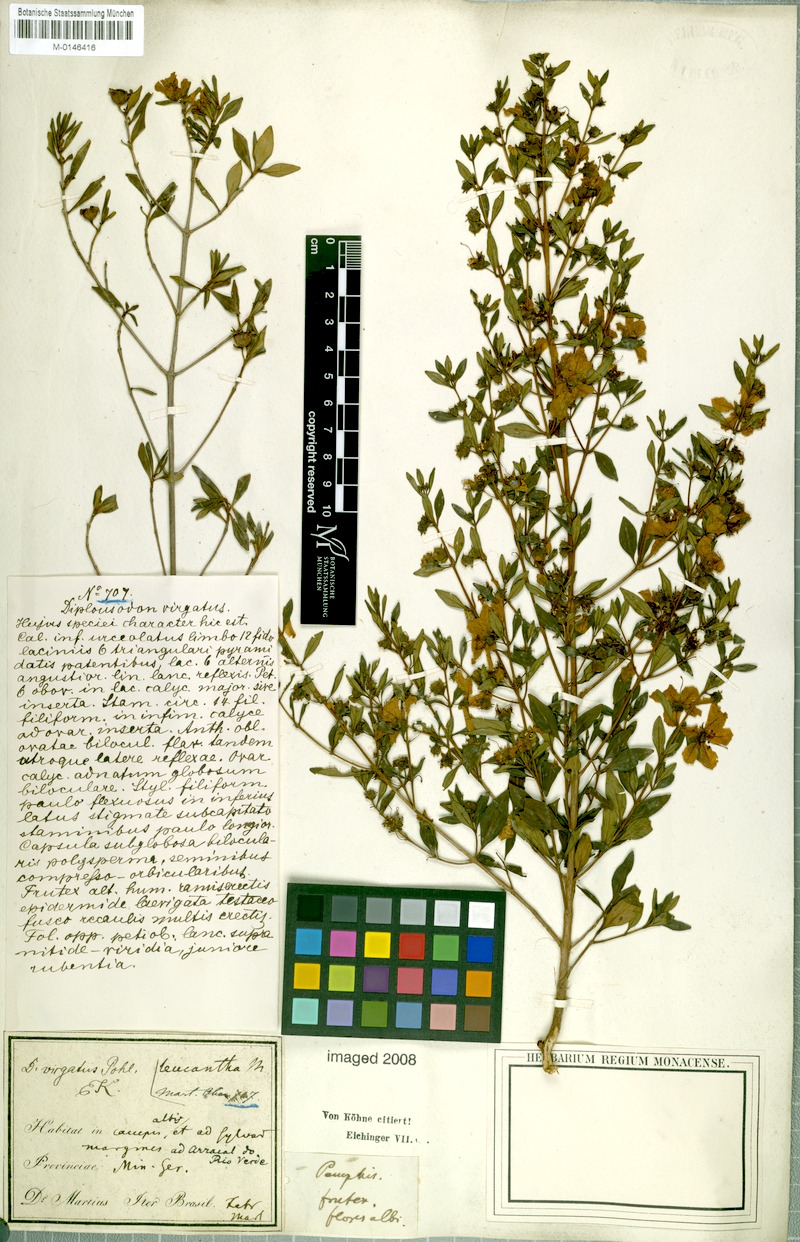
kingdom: Plantae
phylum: Tracheophyta
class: Magnoliopsida
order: Myrtales
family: Lythraceae
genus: Diplusodon
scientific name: Diplusodon virgatus
